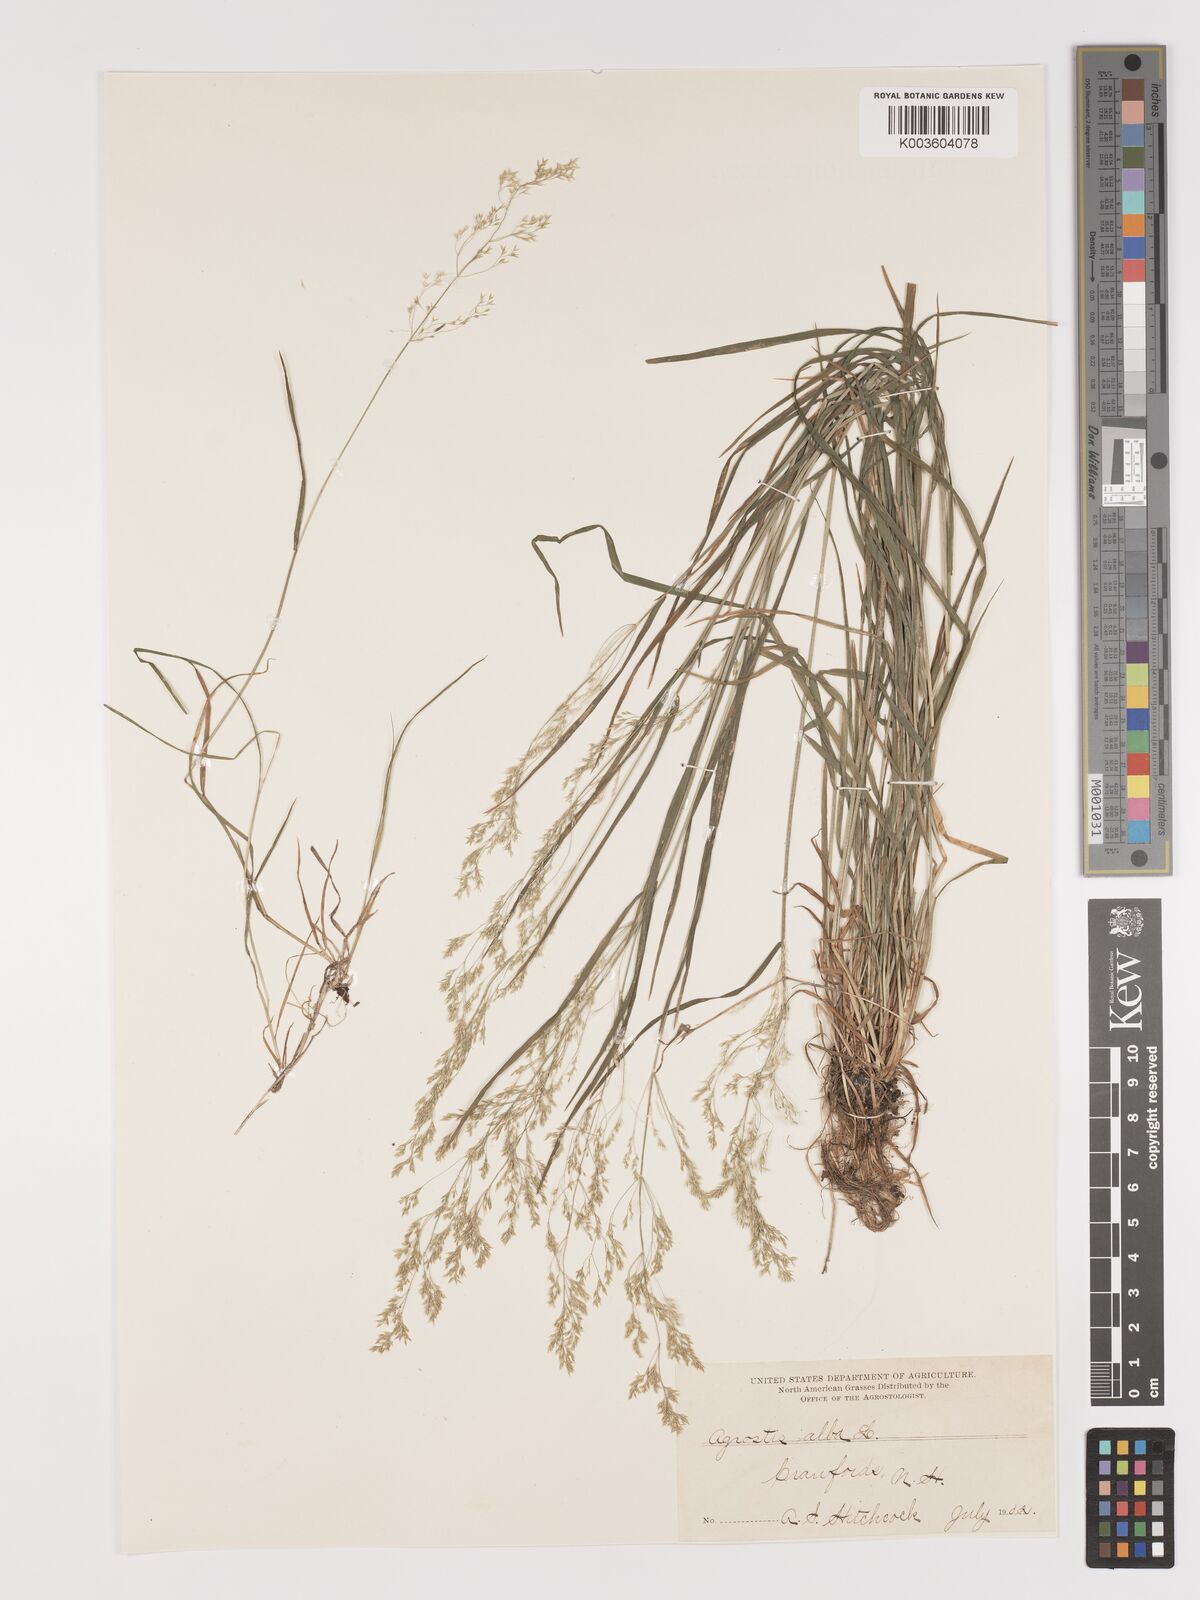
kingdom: Plantae
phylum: Tracheophyta
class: Liliopsida
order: Poales
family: Poaceae
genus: Agrostis
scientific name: Agrostis gigantea
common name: Black bent
